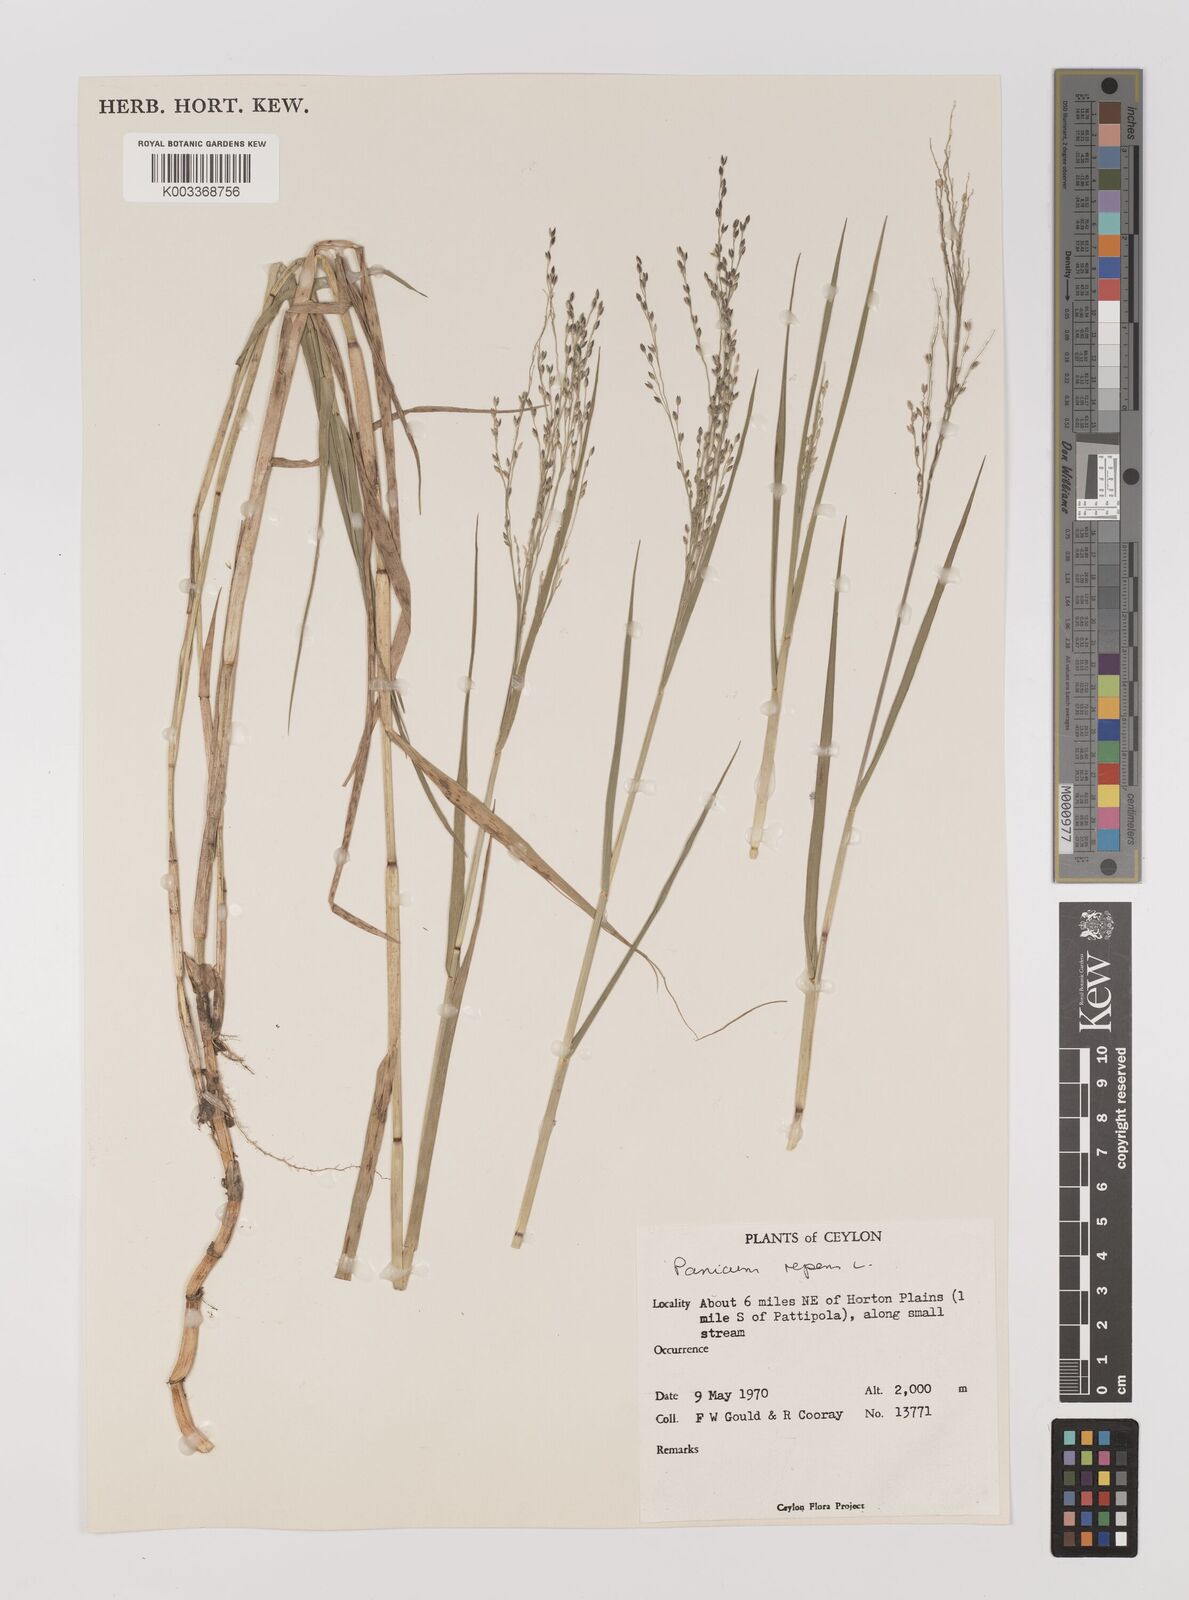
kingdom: Plantae
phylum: Tracheophyta
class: Liliopsida
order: Poales
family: Poaceae
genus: Panicum
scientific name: Panicum repens
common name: Torpedo grass
